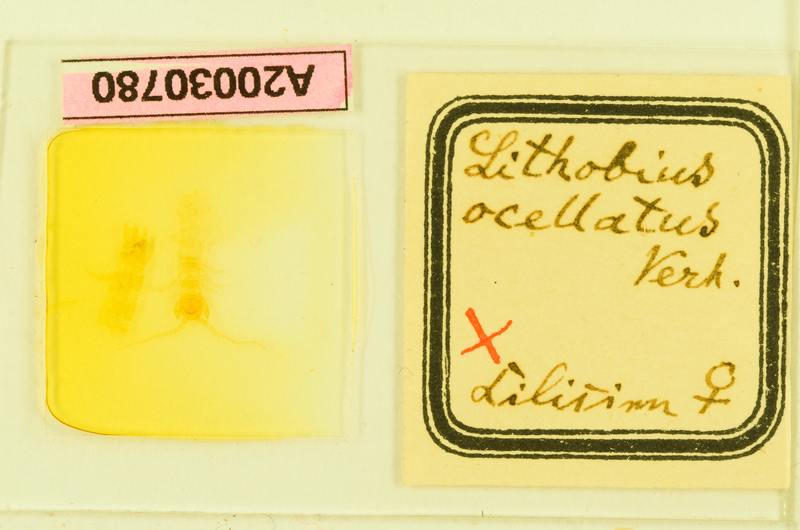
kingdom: Animalia
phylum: Arthropoda
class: Chilopoda
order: Lithobiomorpha
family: Lithobiidae
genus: Lithobius
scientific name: Lithobius parvicornis
